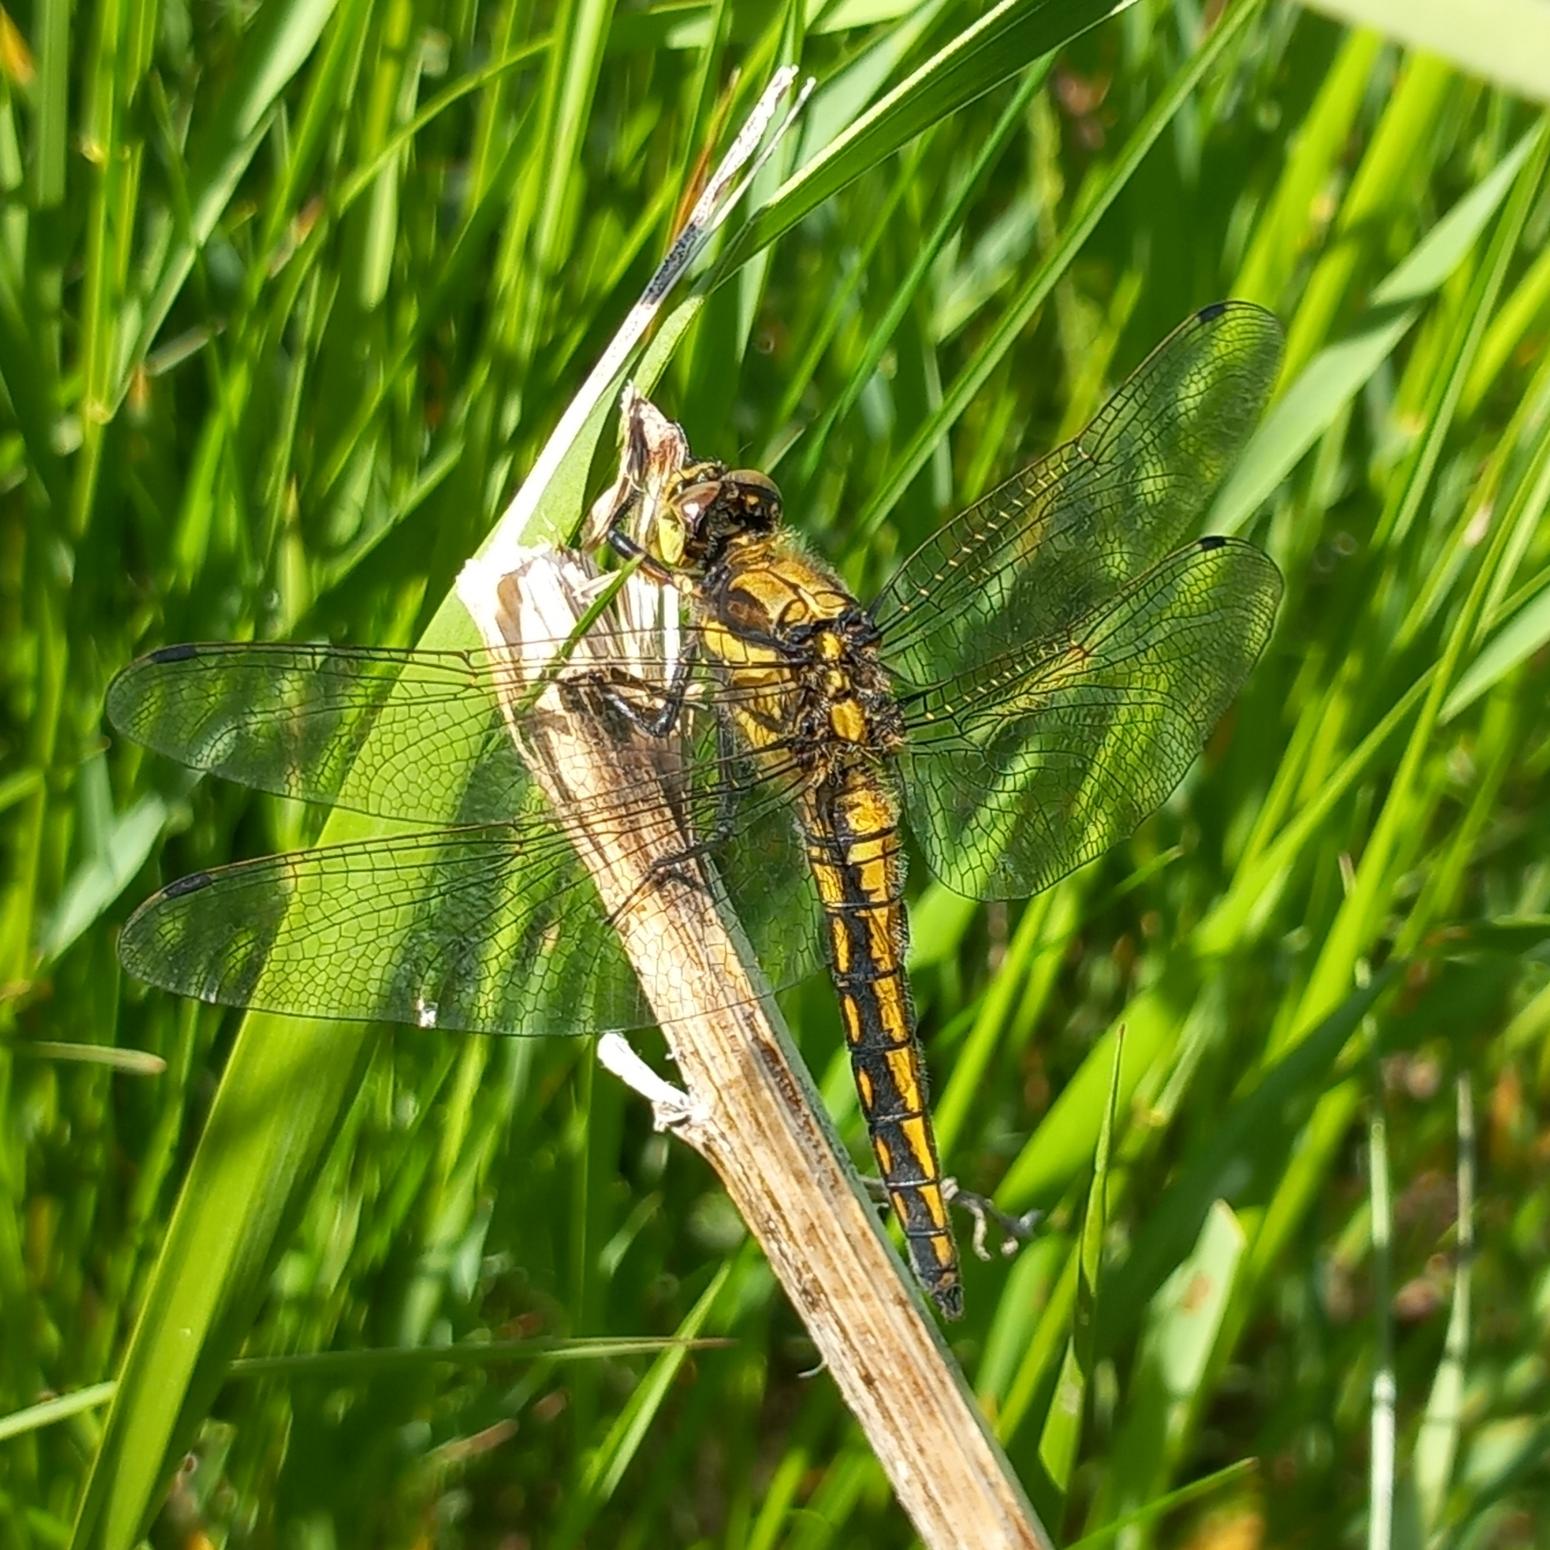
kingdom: Animalia
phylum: Arthropoda
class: Insecta
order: Odonata
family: Libellulidae
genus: Orthetrum
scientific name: Orthetrum cancellatum
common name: Stor blåpil
